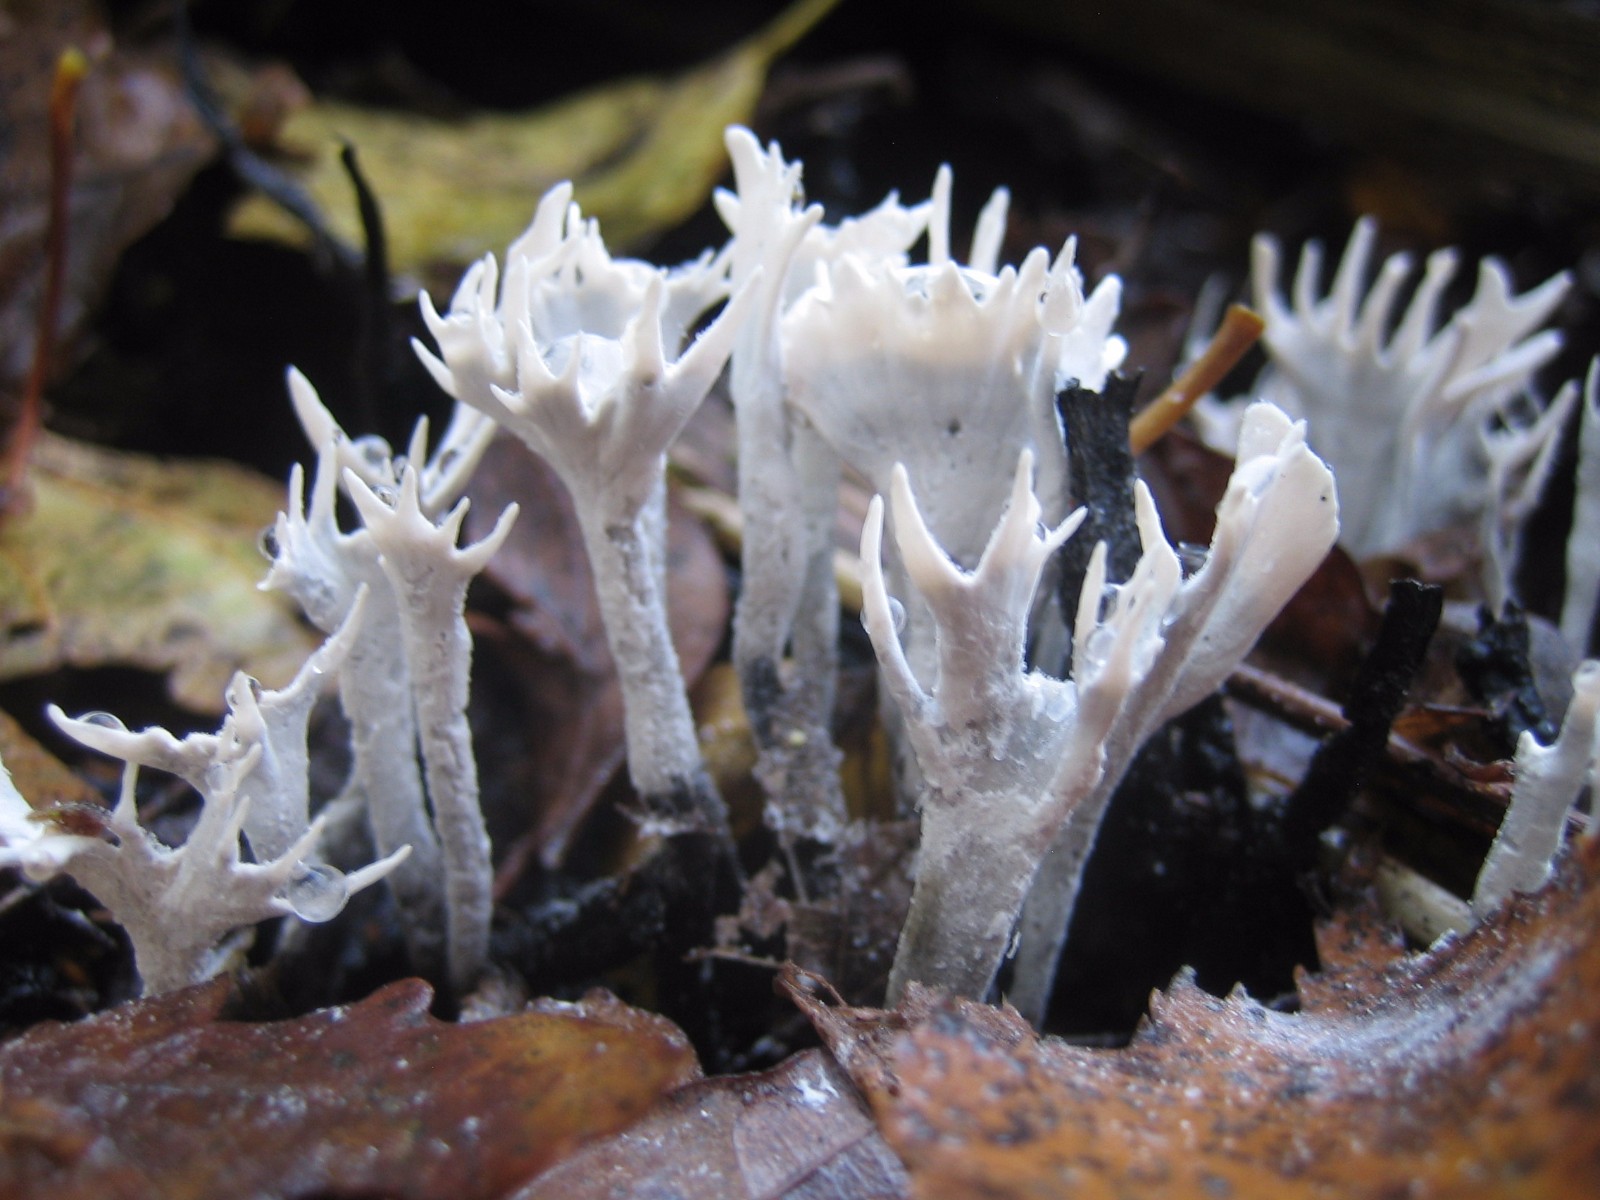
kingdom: Fungi
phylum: Ascomycota
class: Sordariomycetes
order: Xylariales
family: Xylariaceae
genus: Xylaria
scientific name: Xylaria hypoxylon
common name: grenet stødsvamp
